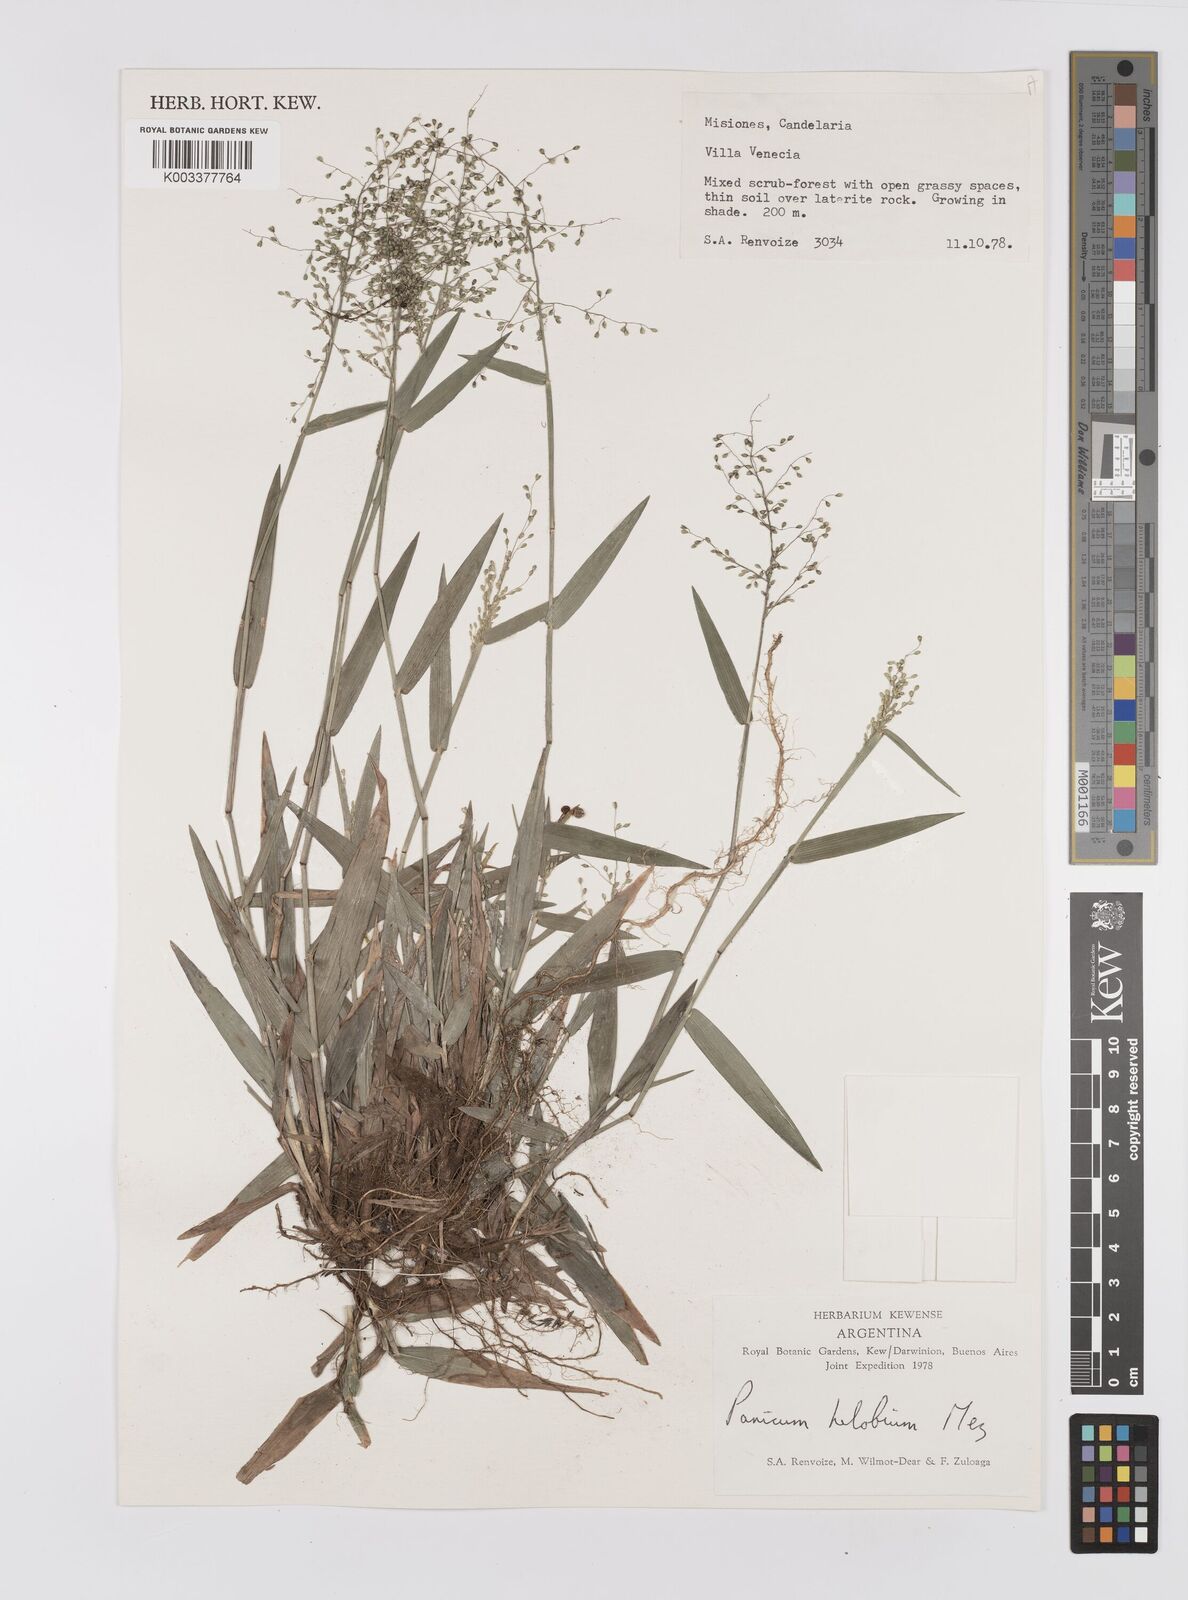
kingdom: Plantae
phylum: Tracheophyta
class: Liliopsida
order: Poales
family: Poaceae
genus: Trichanthecium
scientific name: Trichanthecium schwackeanum
